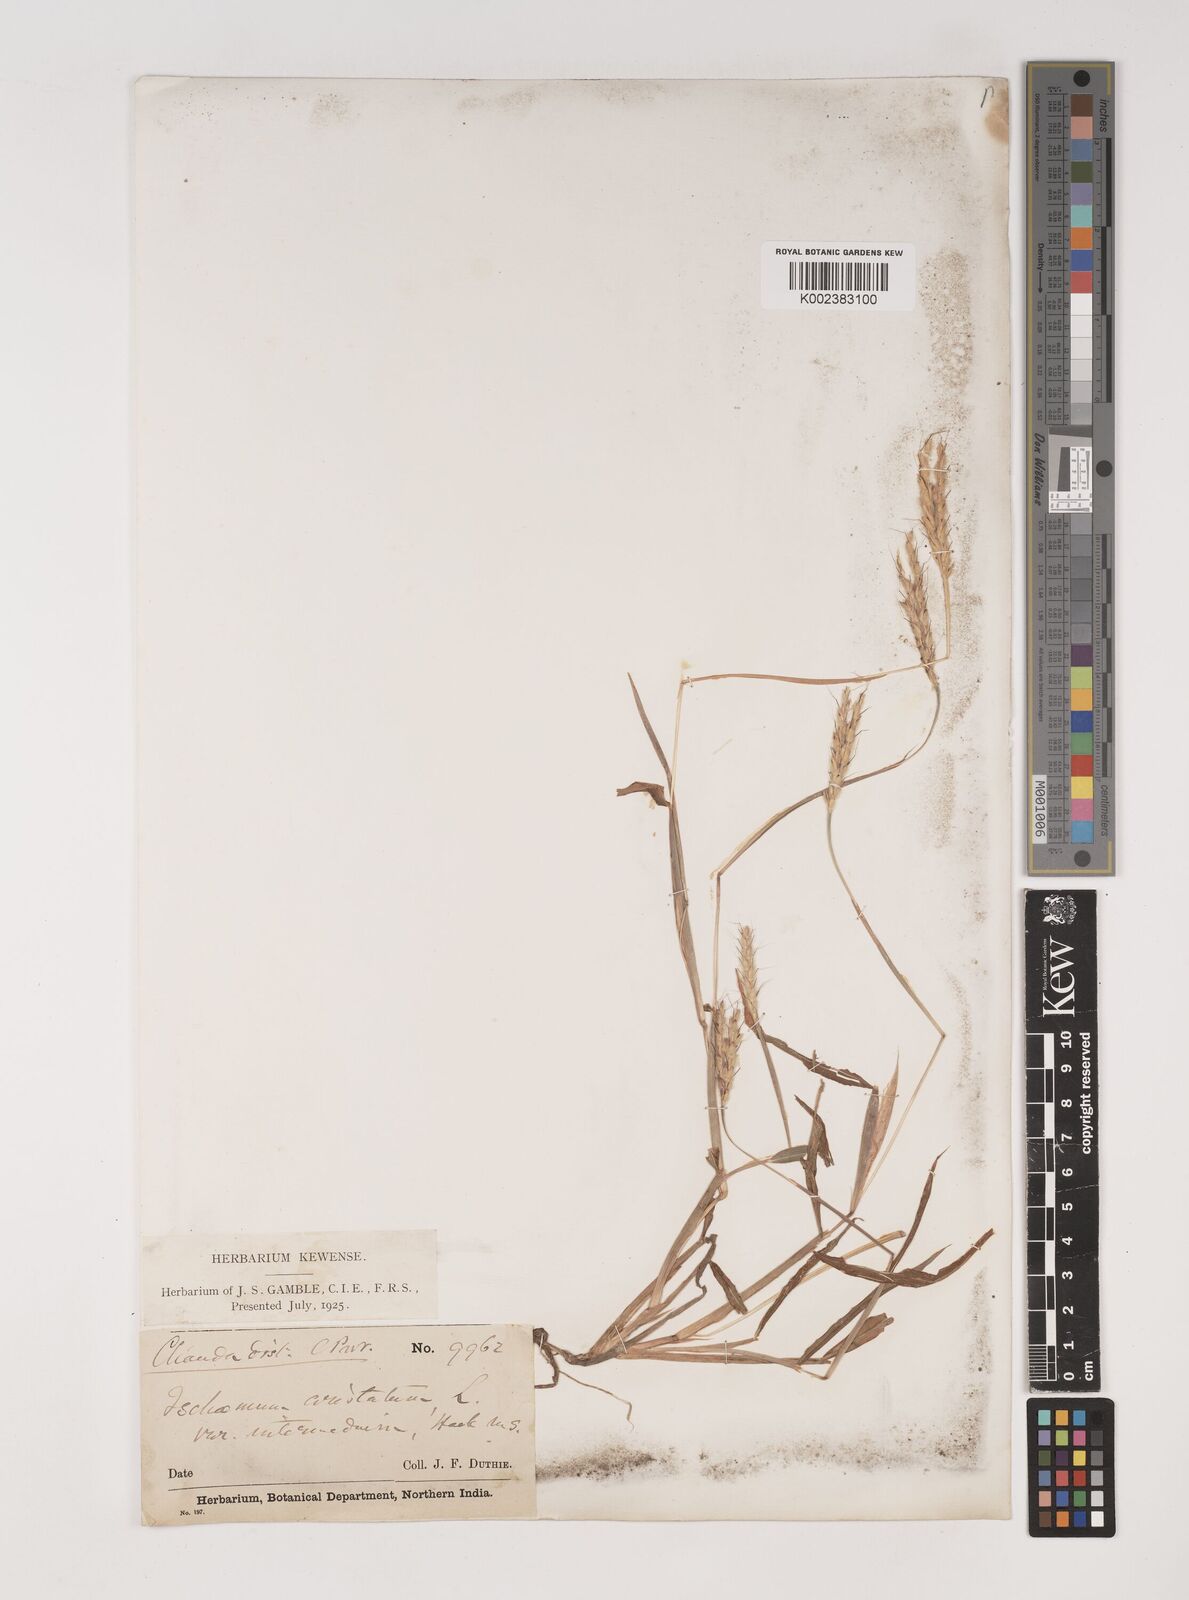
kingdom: Plantae
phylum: Tracheophyta
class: Liliopsida
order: Poales
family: Poaceae
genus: Ischaemum
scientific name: Ischaemum molle
